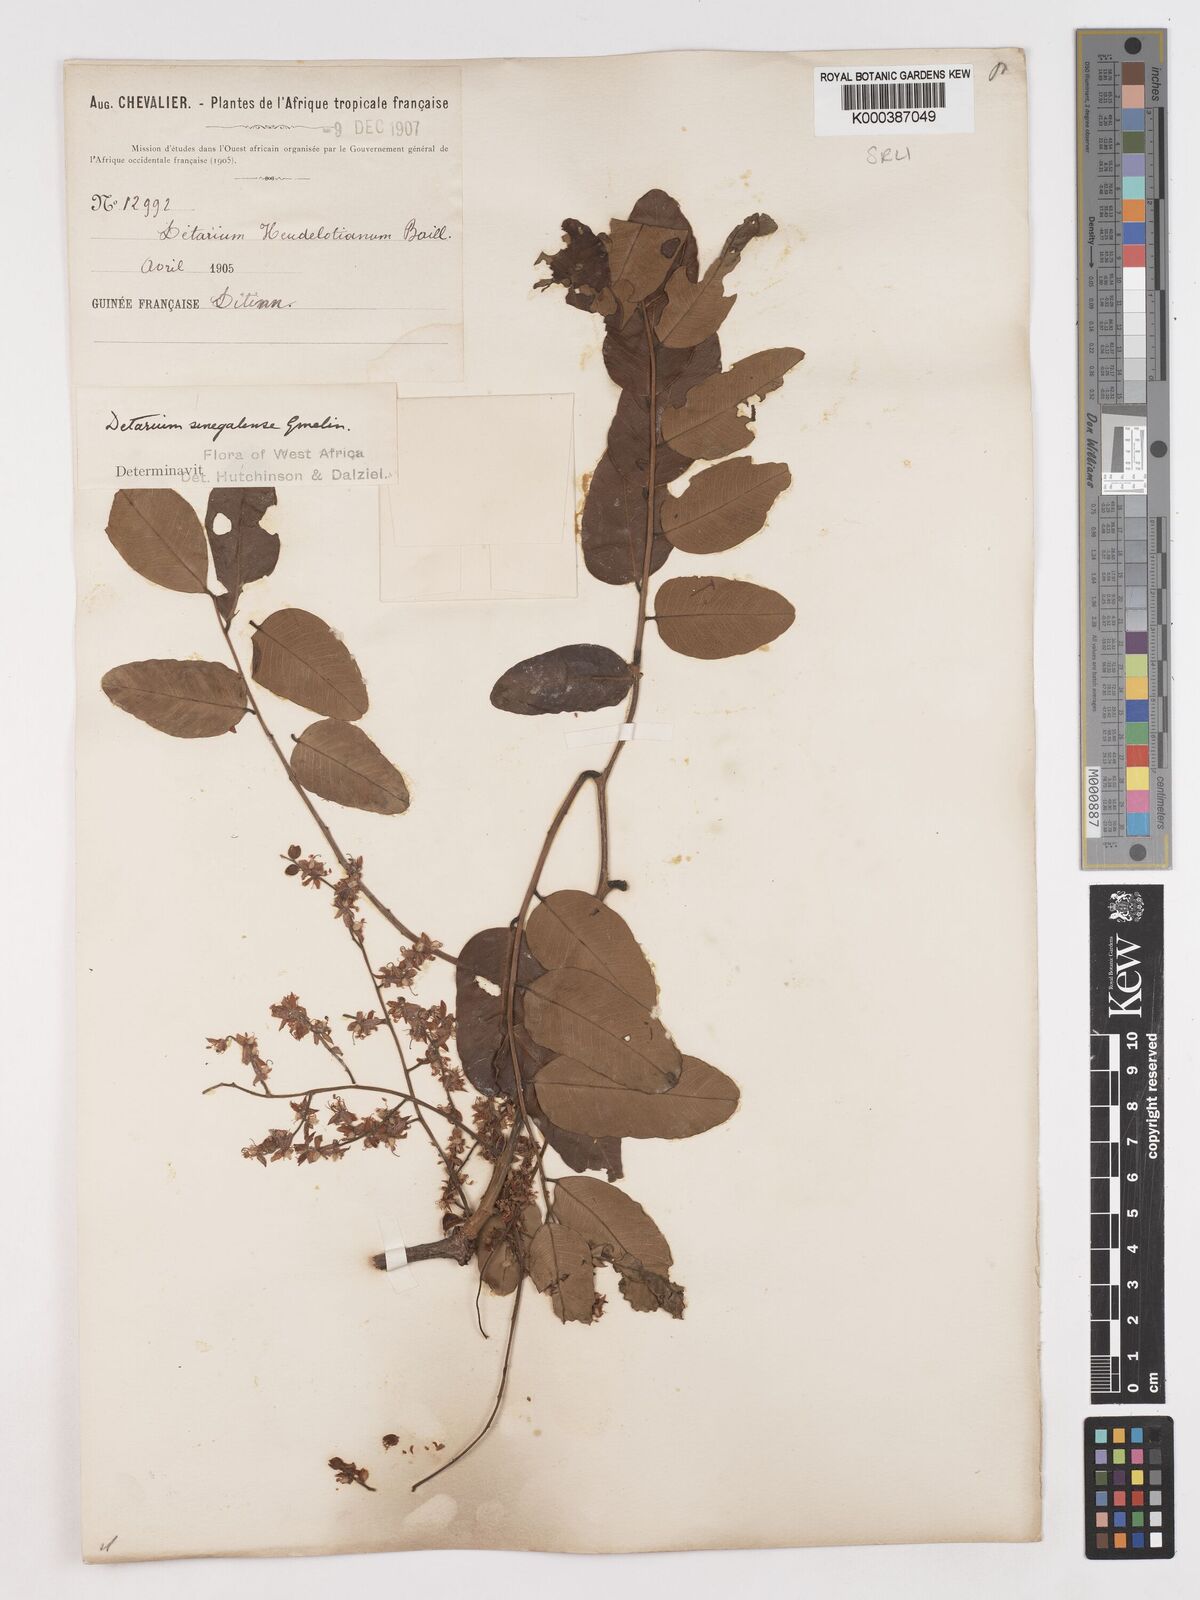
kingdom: Plantae
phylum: Tracheophyta
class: Magnoliopsida
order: Fabales
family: Fabaceae
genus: Detarium
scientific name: Detarium microcarpum
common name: Sweet dattock
